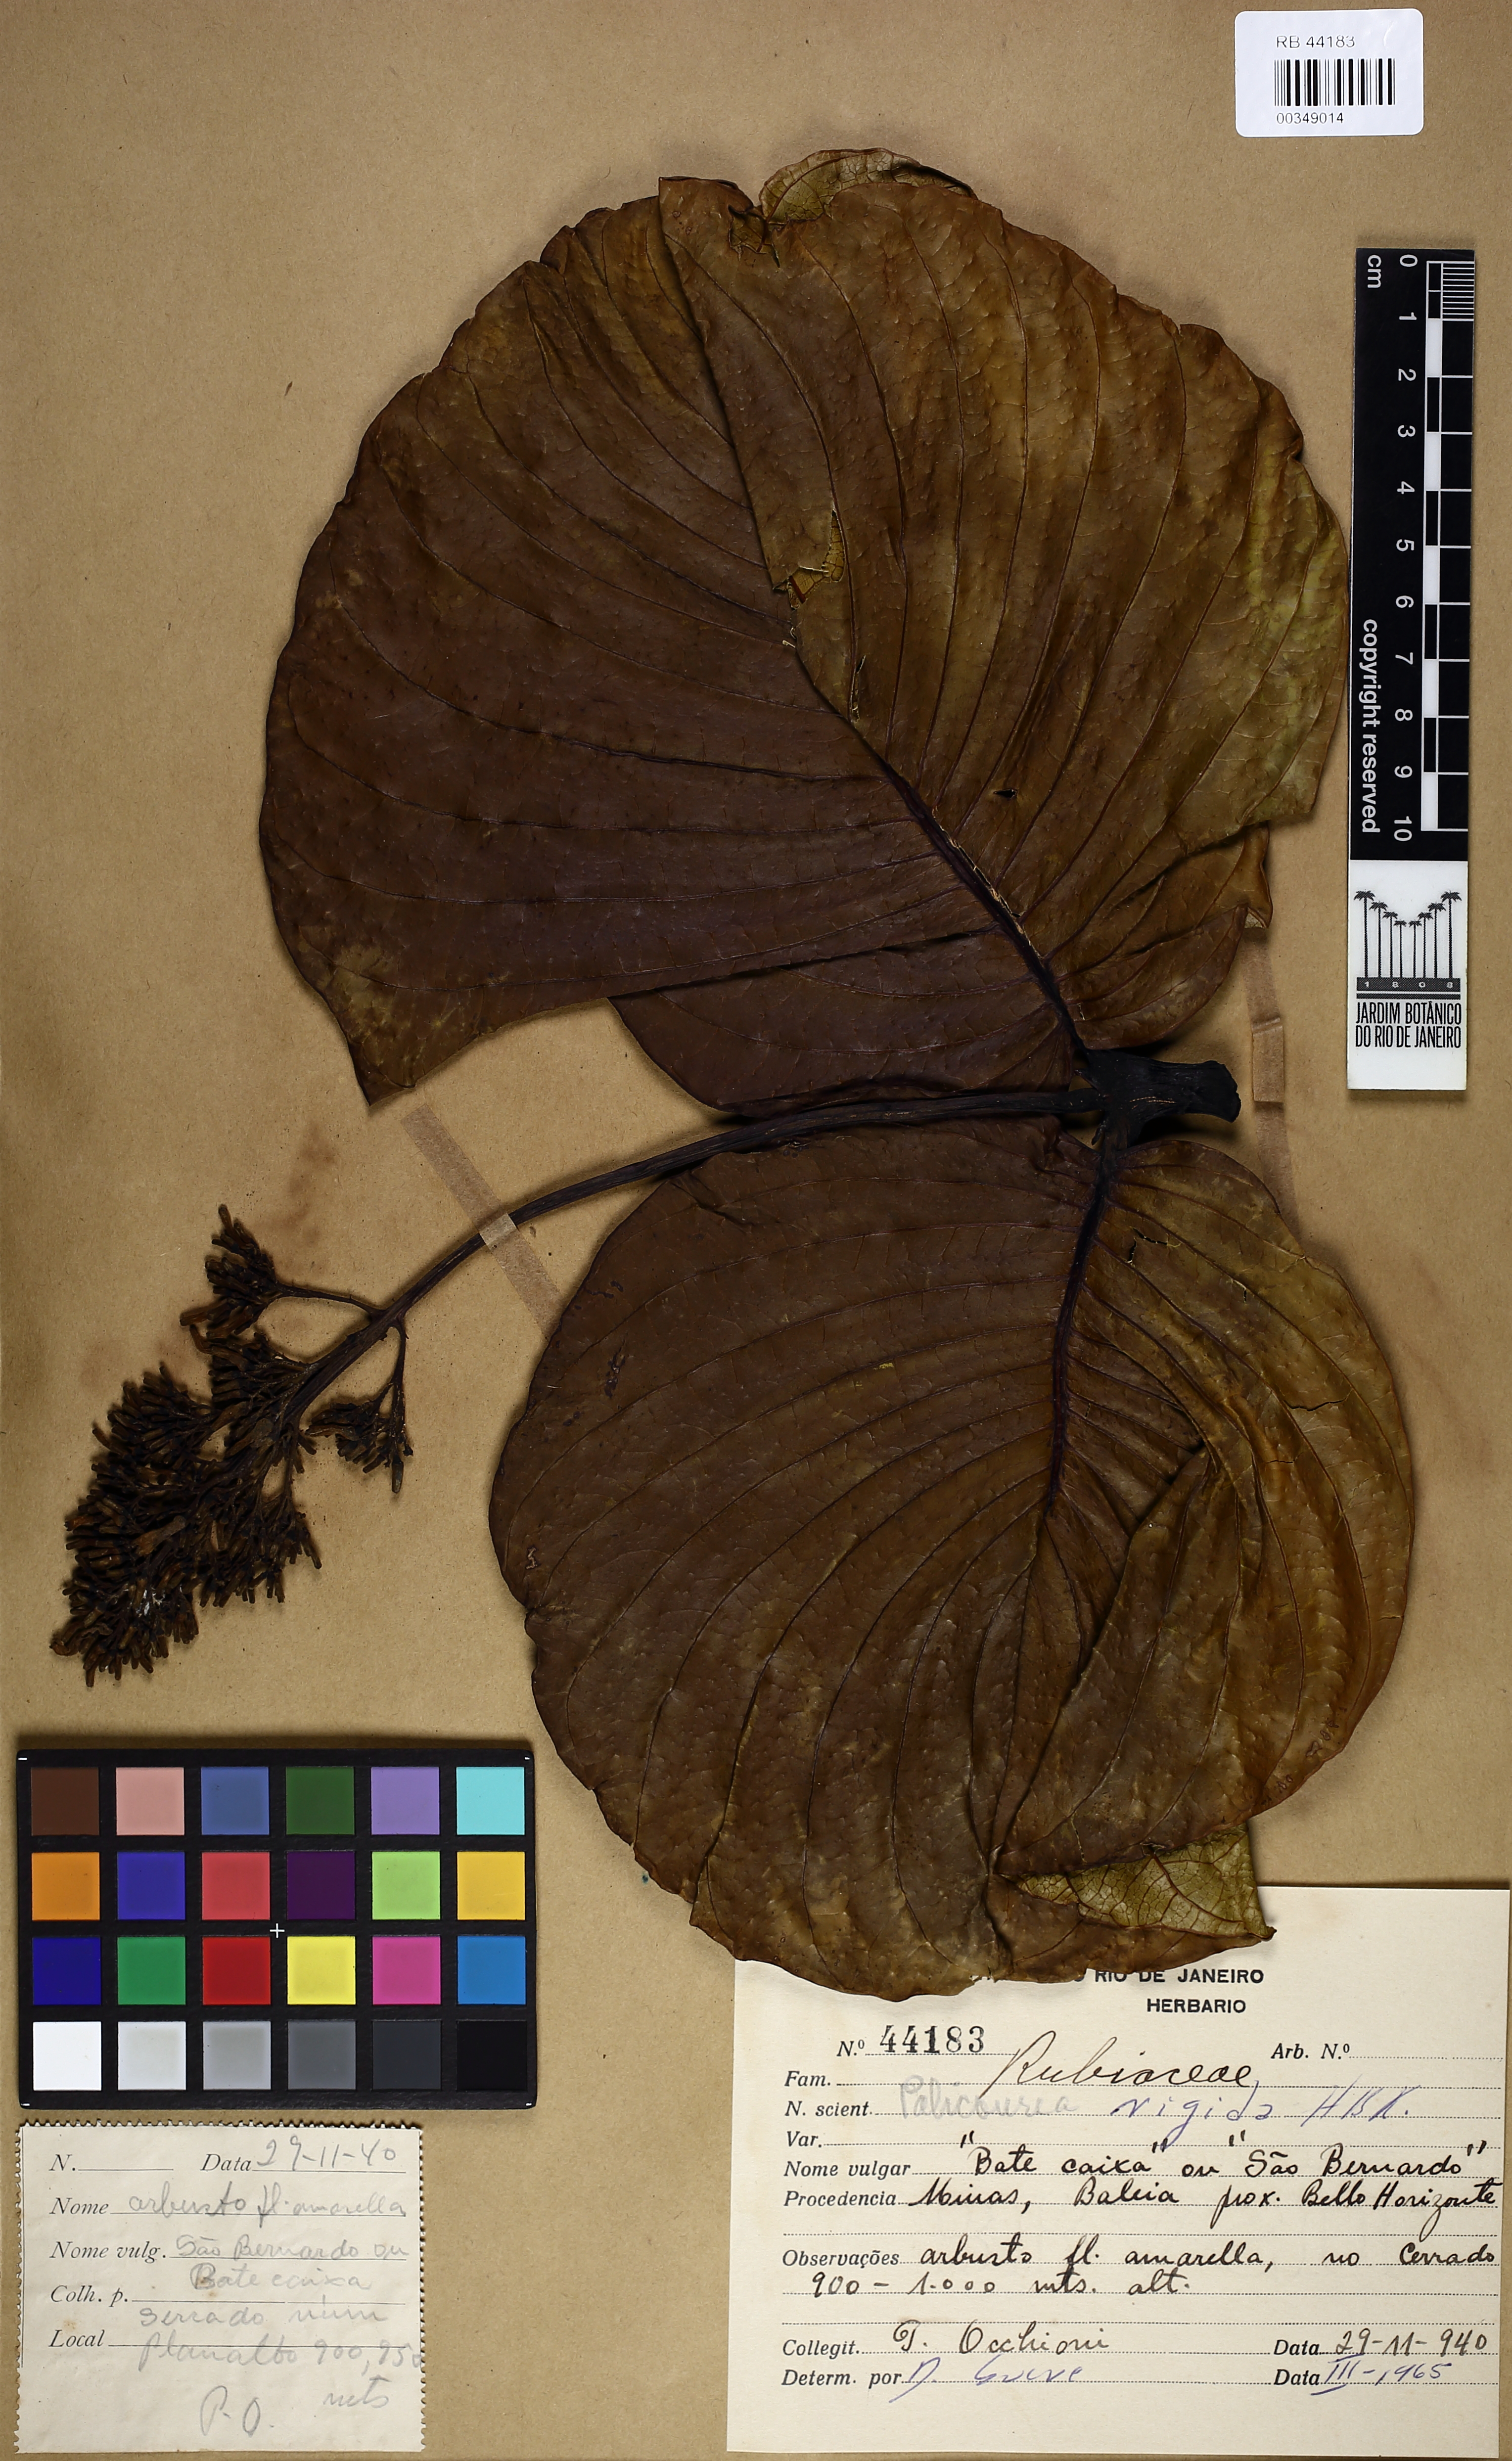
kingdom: Plantae
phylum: Tracheophyta
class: Magnoliopsida
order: Gentianales
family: Rubiaceae
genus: Palicourea
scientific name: Palicourea rigida
